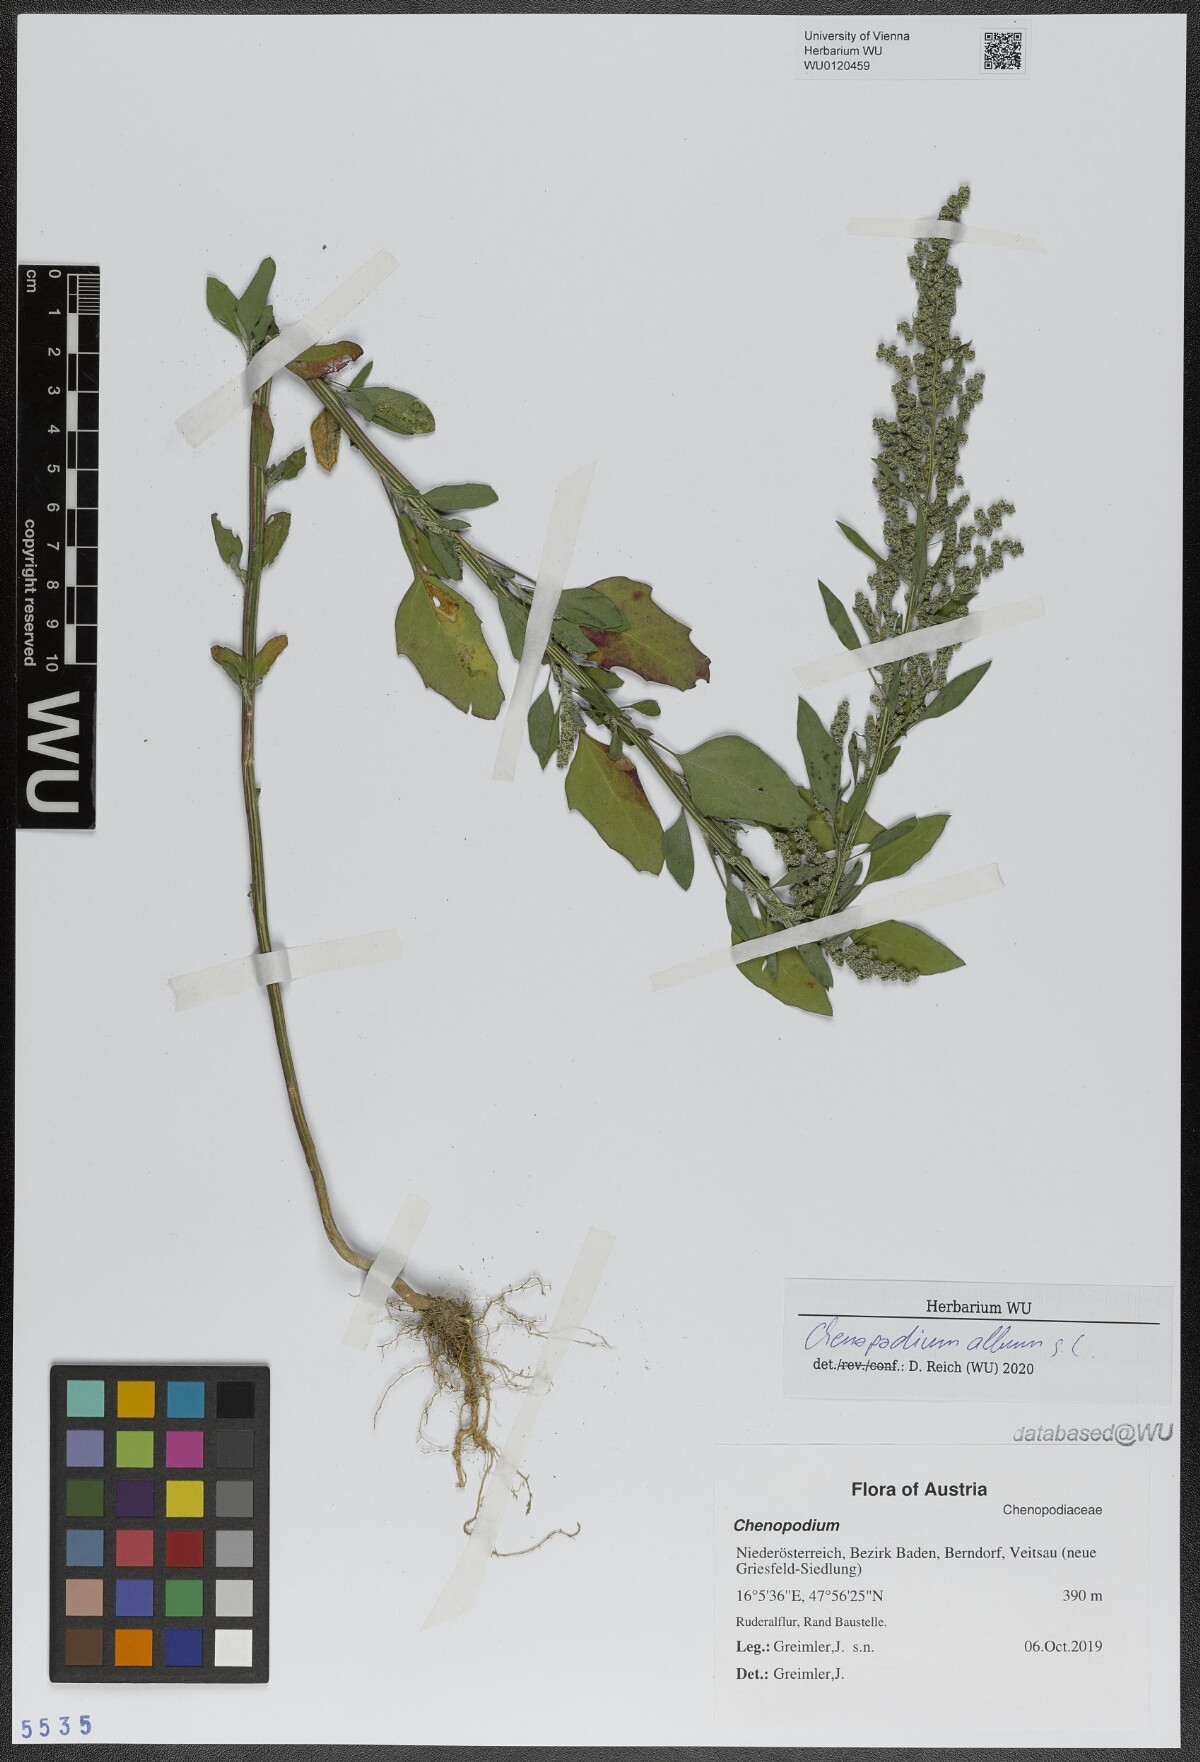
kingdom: Plantae
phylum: Tracheophyta
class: Magnoliopsida
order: Caryophyllales
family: Amaranthaceae
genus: Chenopodium
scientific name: Chenopodium album
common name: Fat-hen
